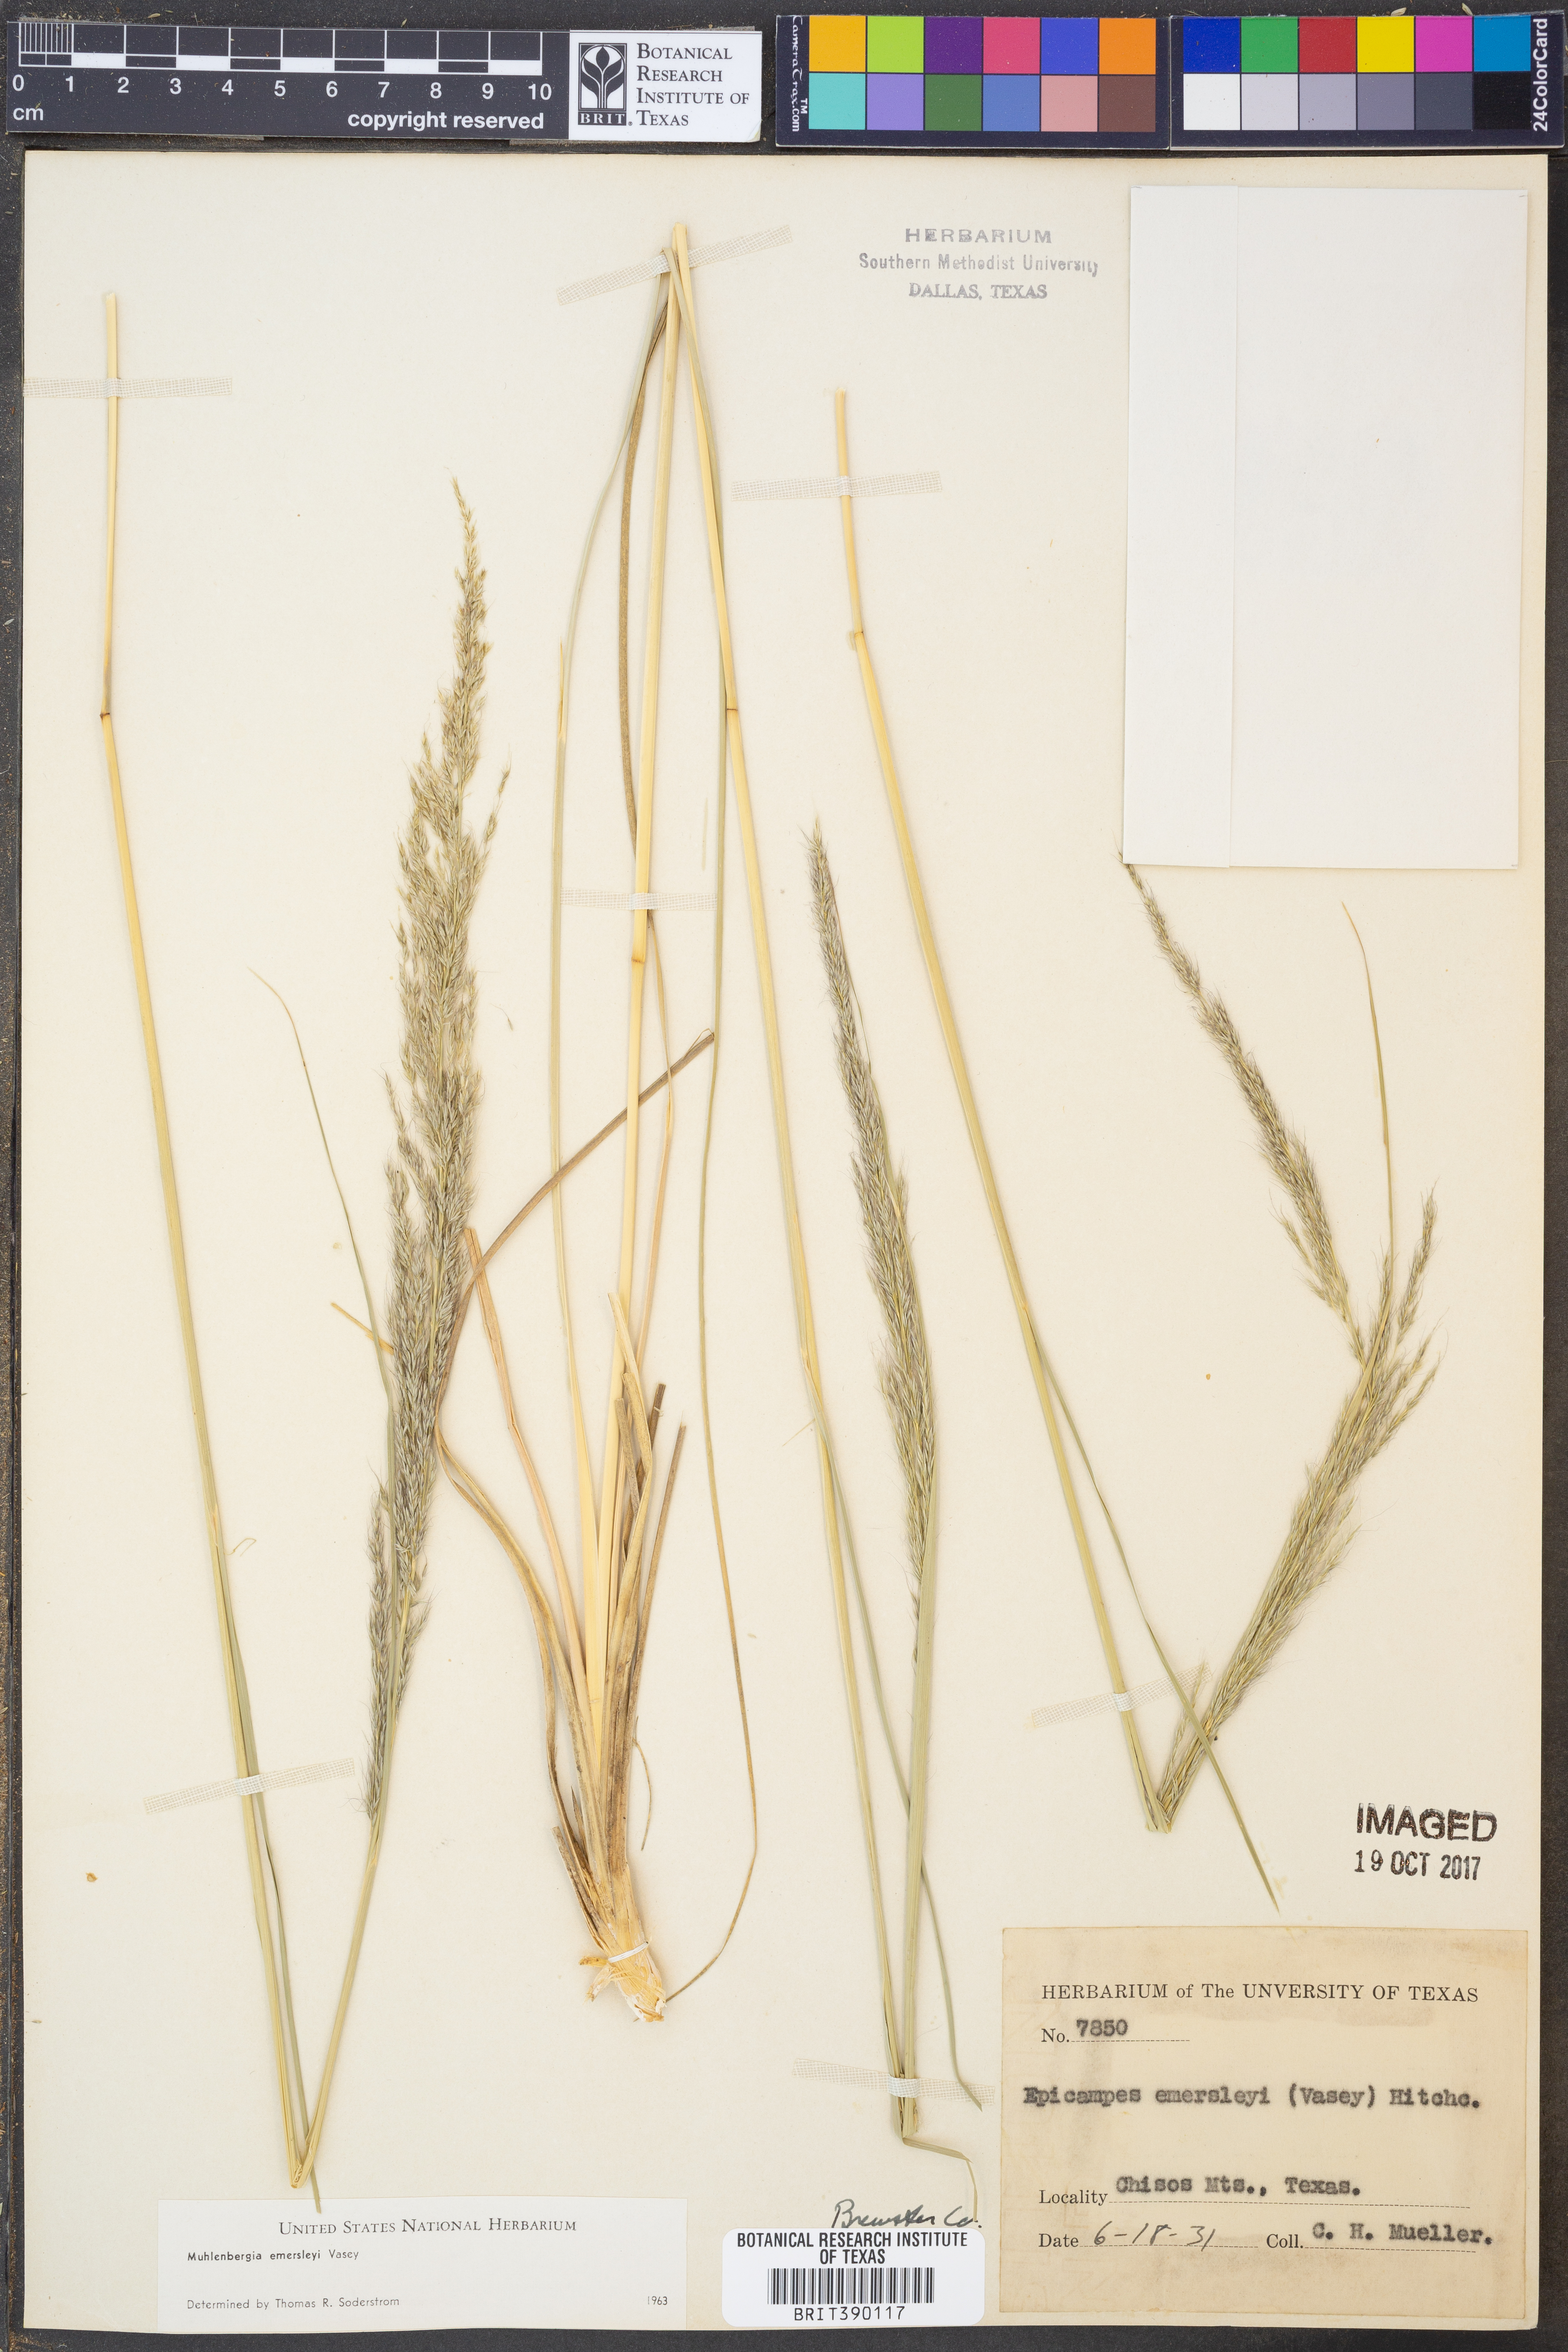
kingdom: Plantae
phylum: Tracheophyta
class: Liliopsida
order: Poales
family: Poaceae
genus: Muhlenbergia
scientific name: Muhlenbergia emersleyi
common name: Bull grass
